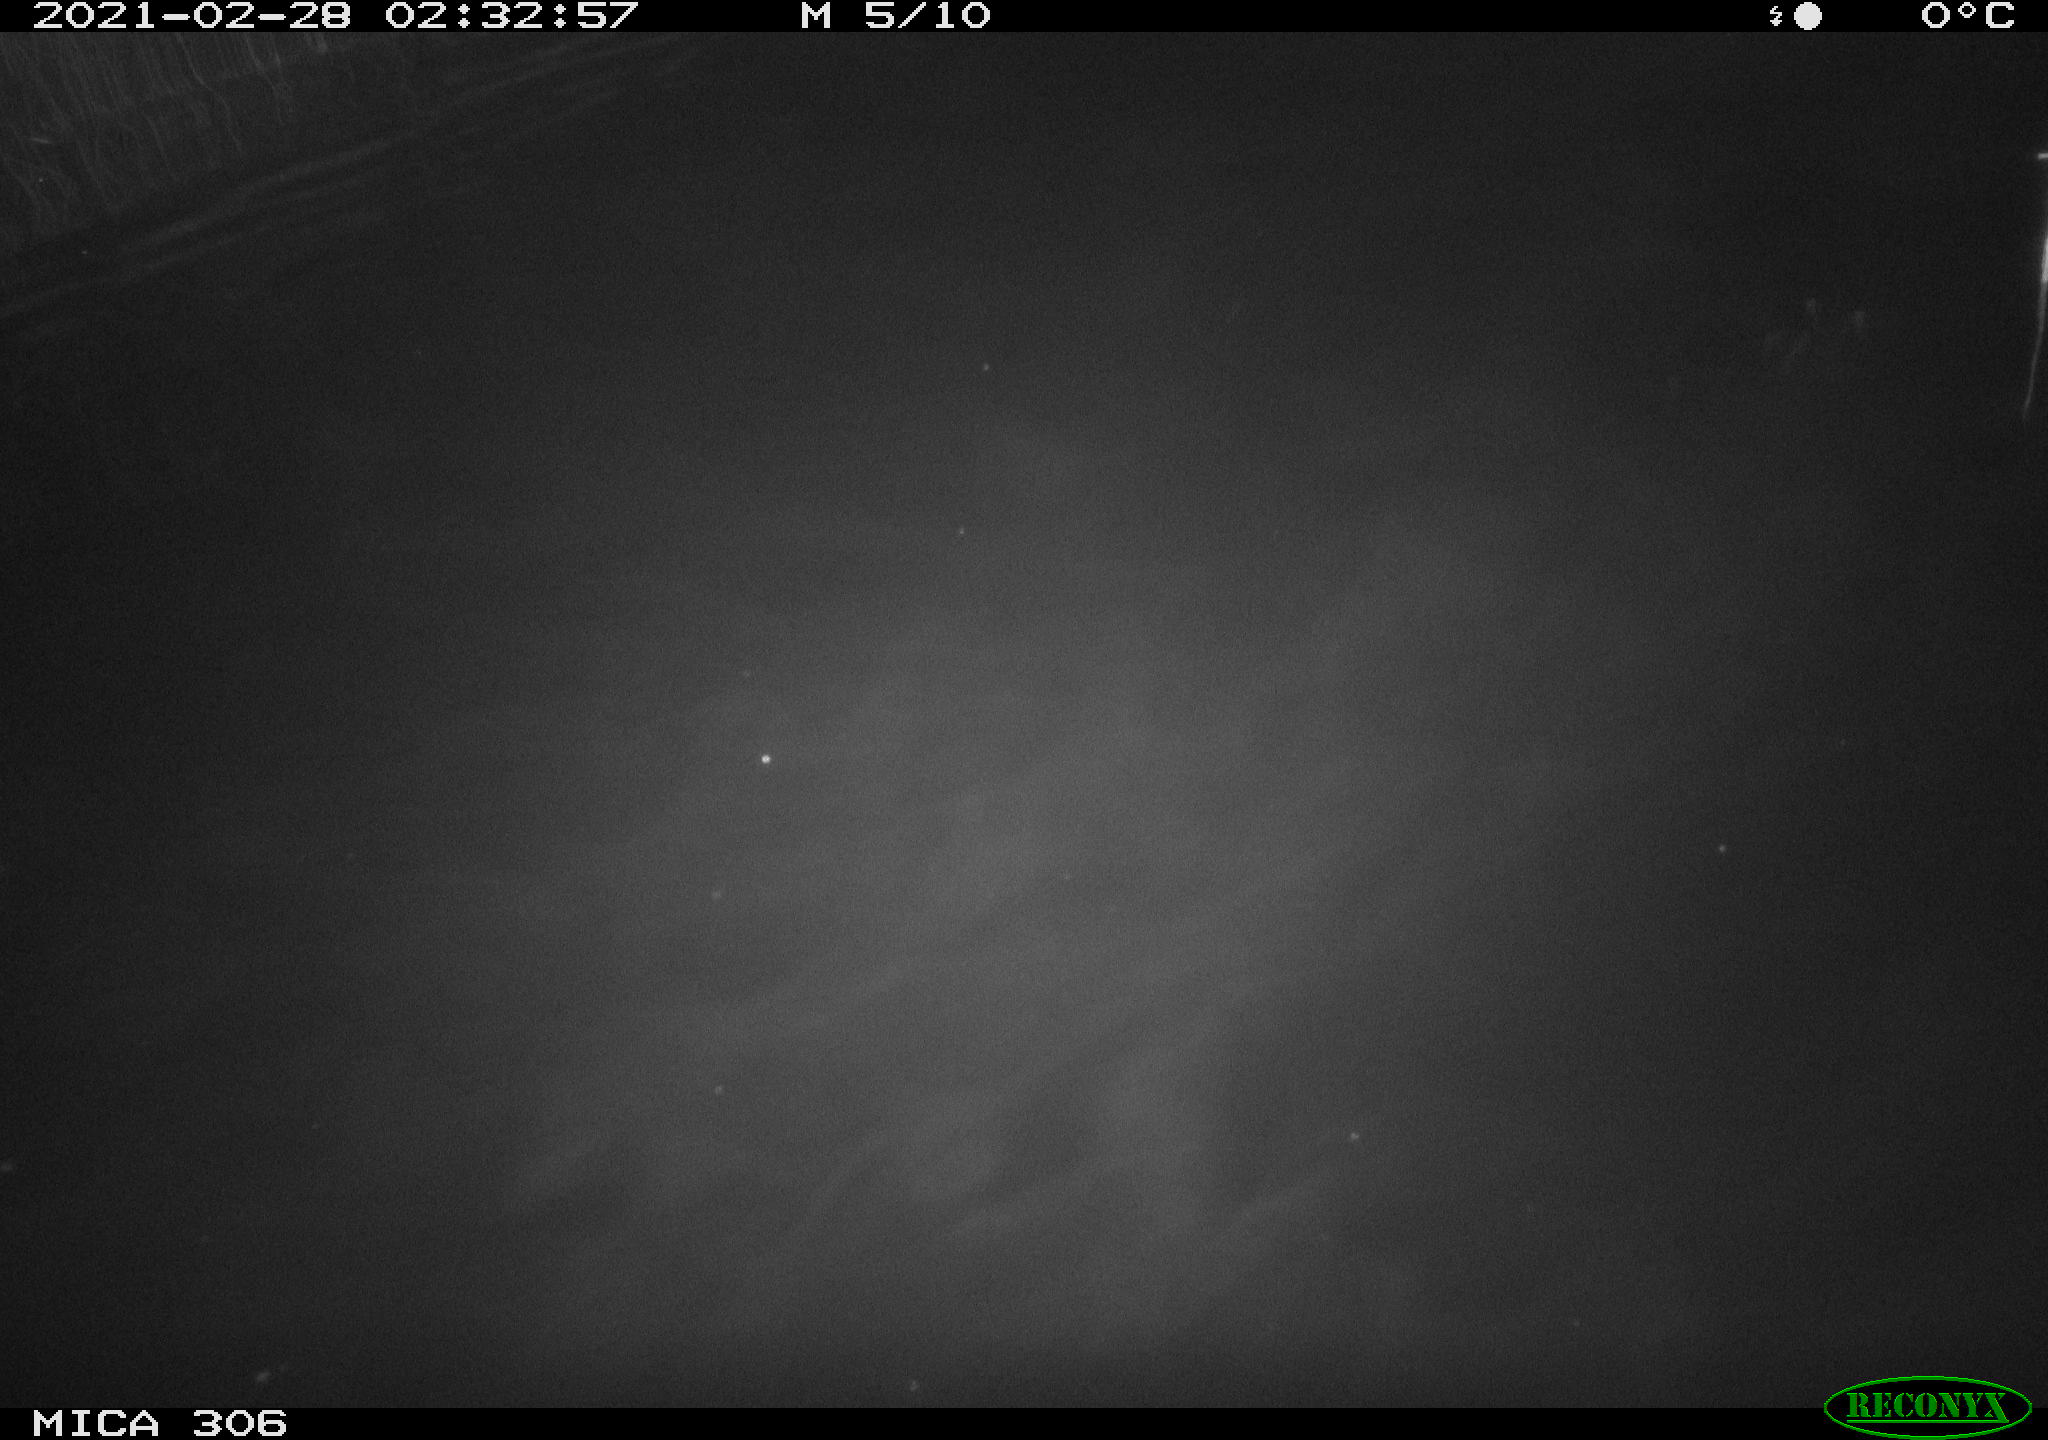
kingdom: Animalia
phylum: Chordata
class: Mammalia
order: Rodentia
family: Cricetidae
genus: Ondatra
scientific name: Ondatra zibethicus
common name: Muskrat
